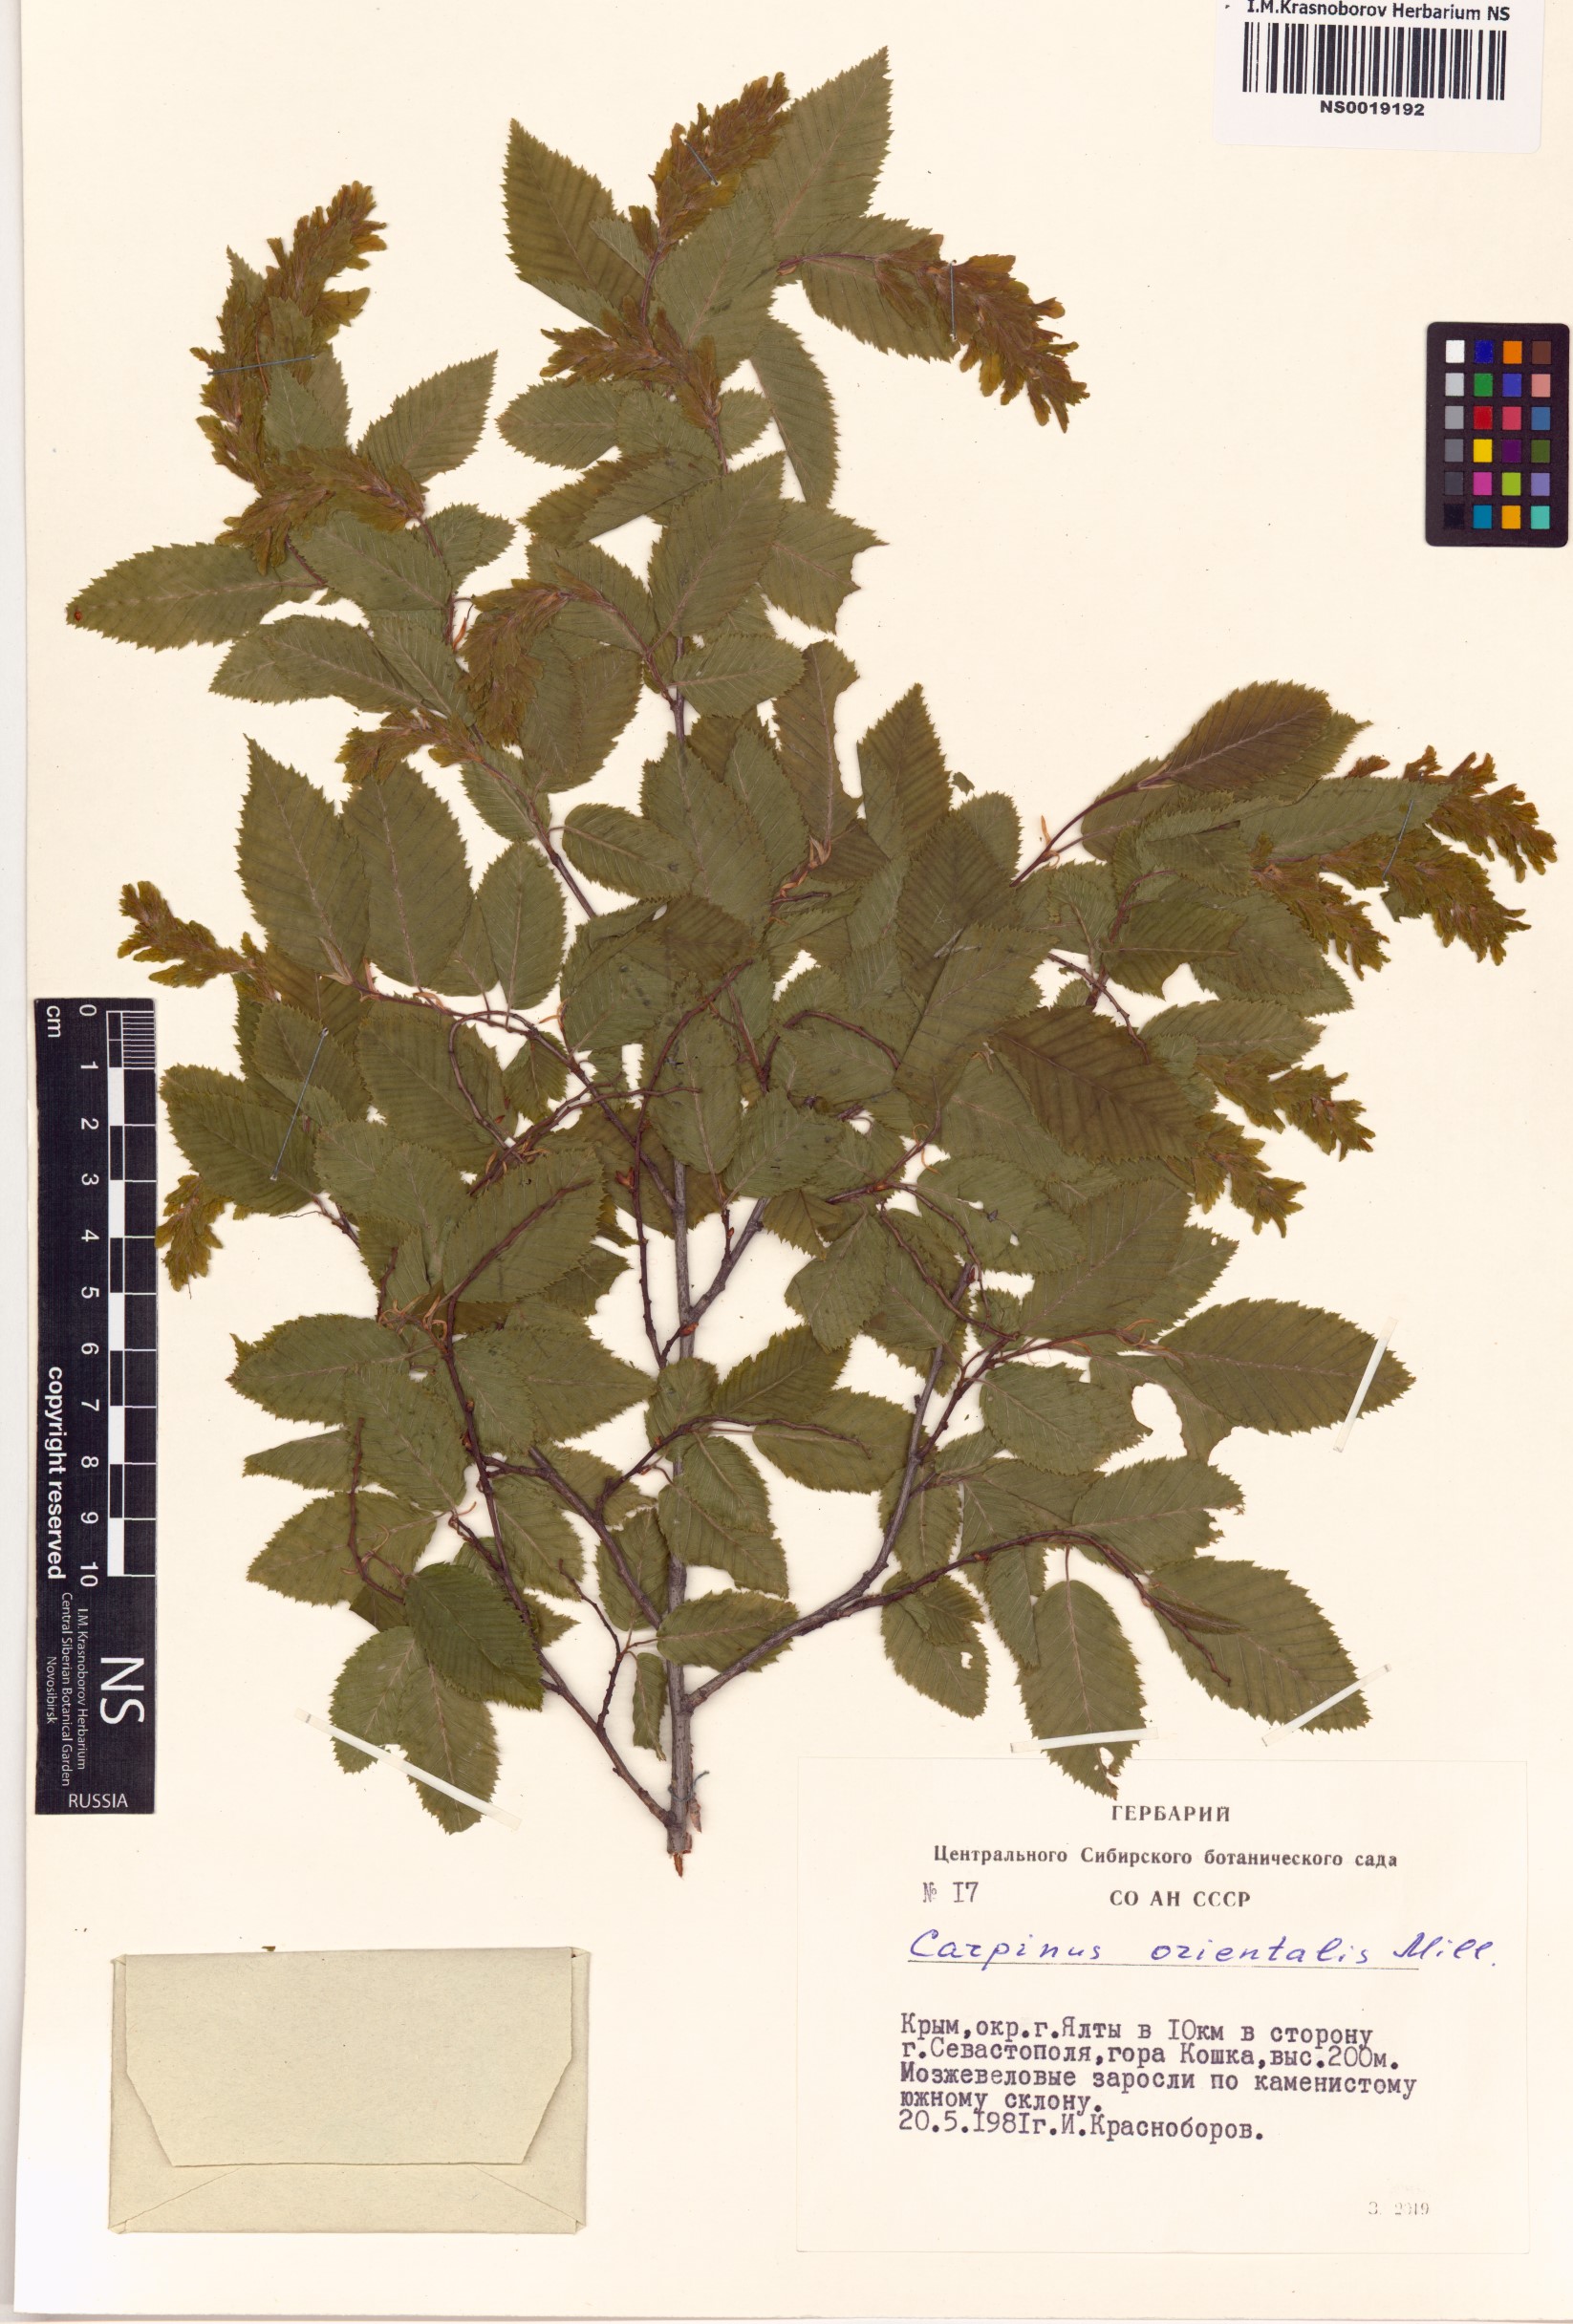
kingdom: Plantae
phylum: Tracheophyta
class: Magnoliopsida
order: Fagales
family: Betulaceae
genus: Carpinus
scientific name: Carpinus orientalis
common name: Eastern hornbeam
